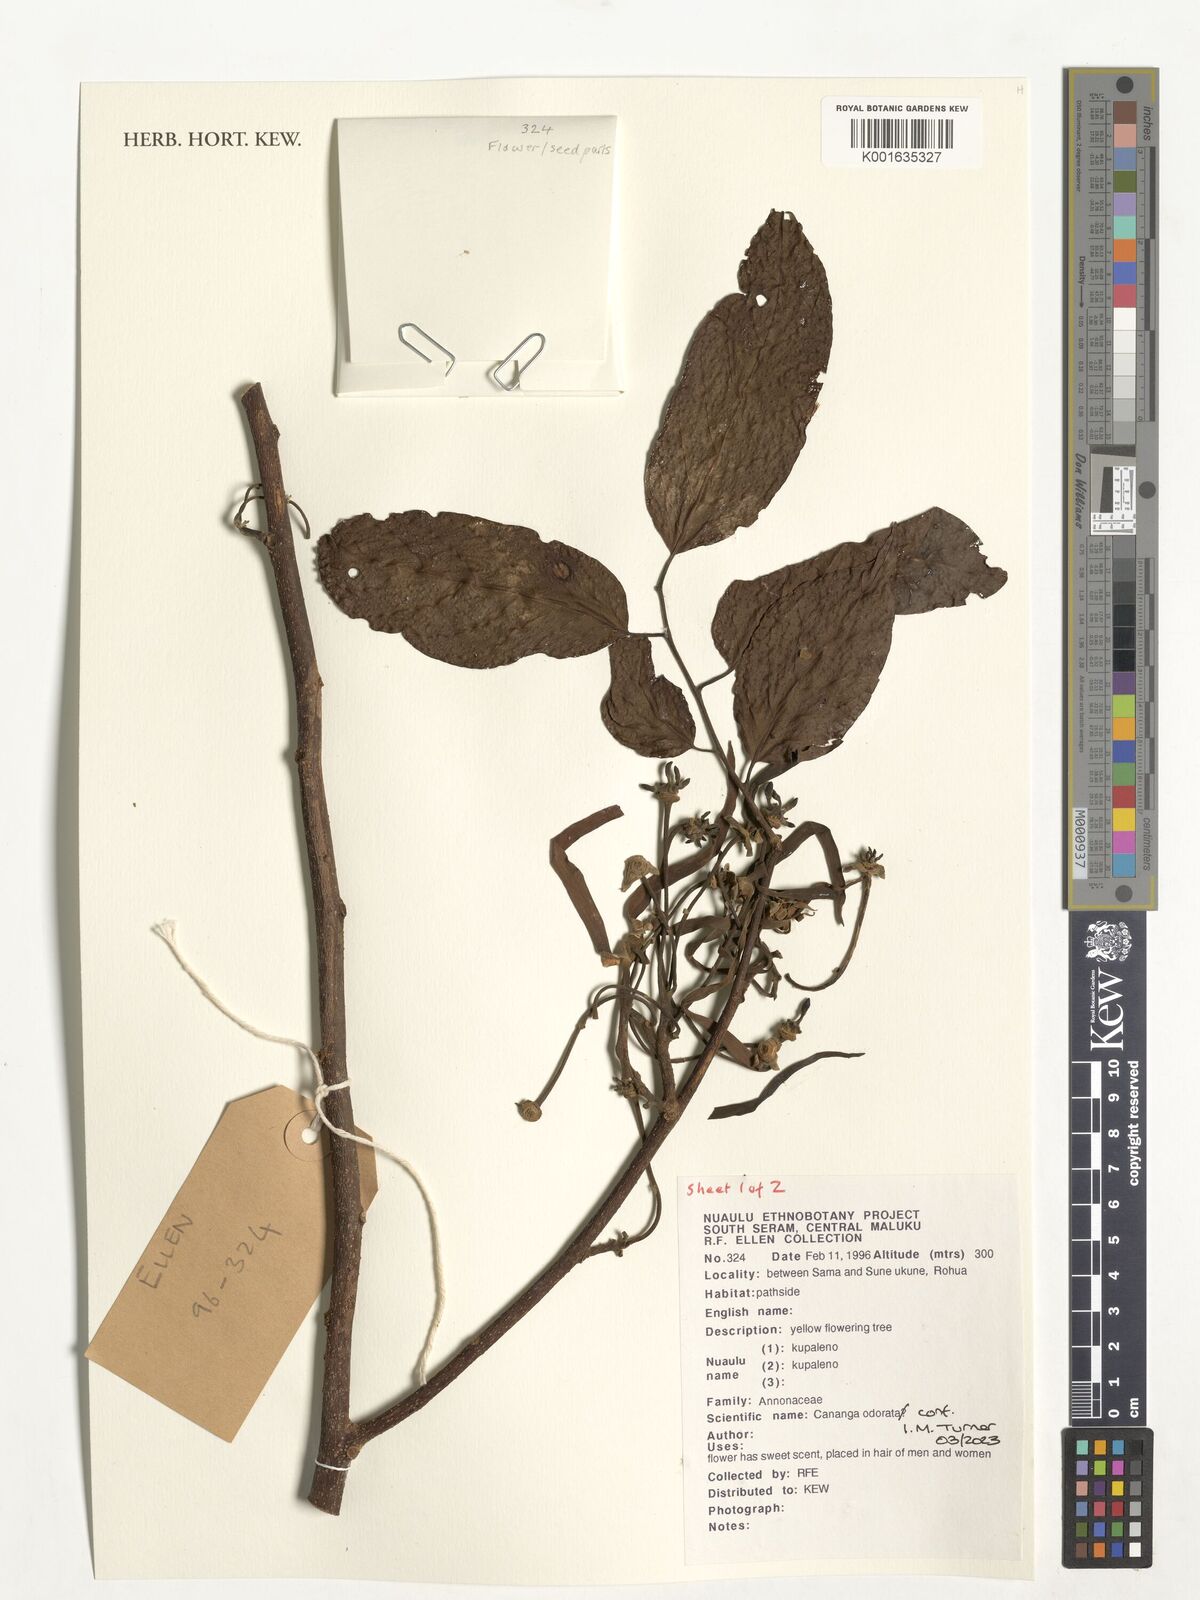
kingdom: Plantae
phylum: Tracheophyta
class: Magnoliopsida
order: Magnoliales
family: Annonaceae
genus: Cananga
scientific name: Cananga odorata
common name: Cananga tree
